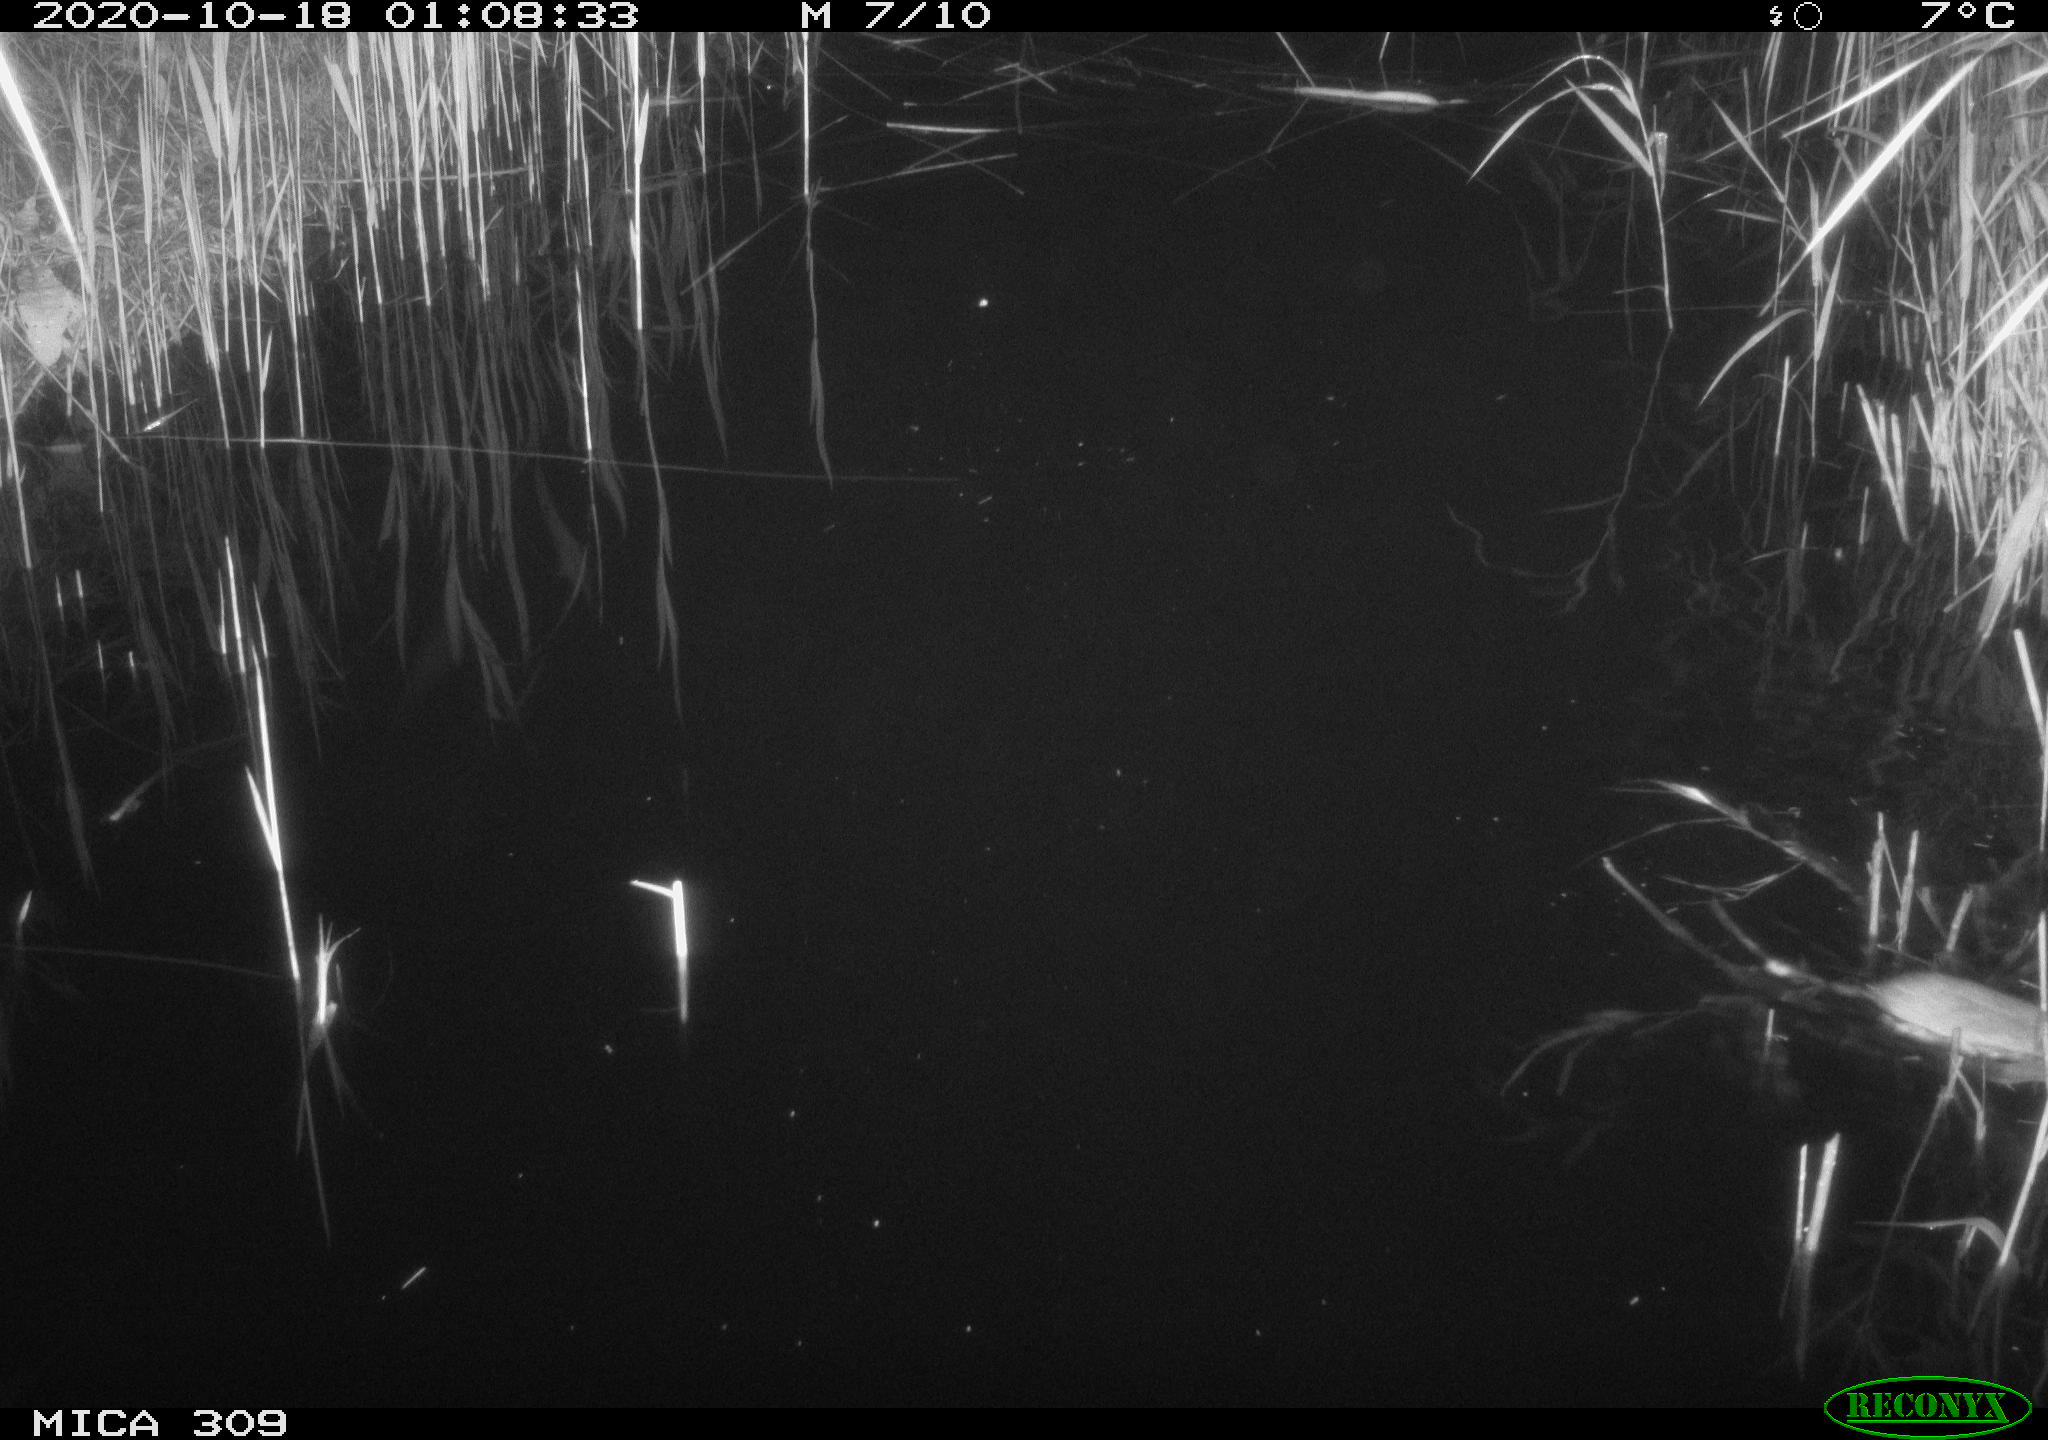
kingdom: Animalia
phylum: Chordata
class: Mammalia
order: Rodentia
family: Muridae
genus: Rattus
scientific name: Rattus norvegicus
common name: Brown rat
